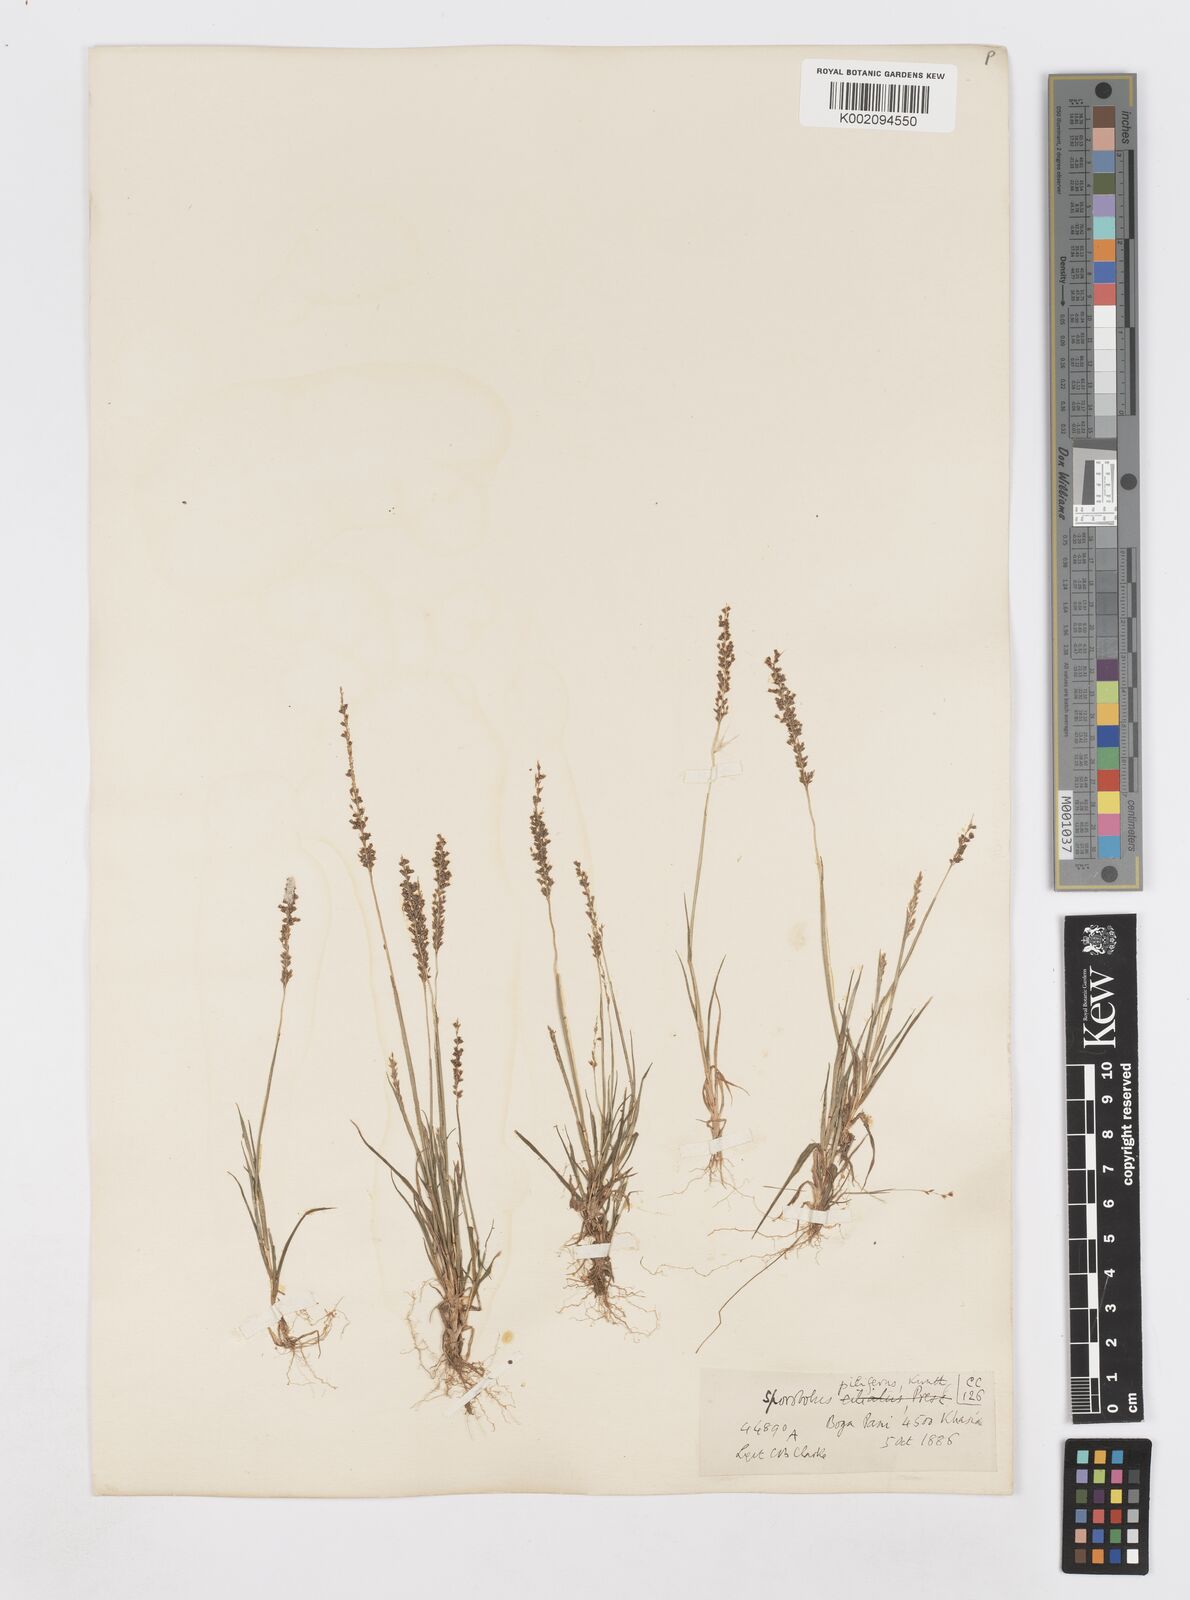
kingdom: Plantae
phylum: Tracheophyta
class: Liliopsida
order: Poales
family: Poaceae
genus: Sporobolus
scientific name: Sporobolus pilifer
